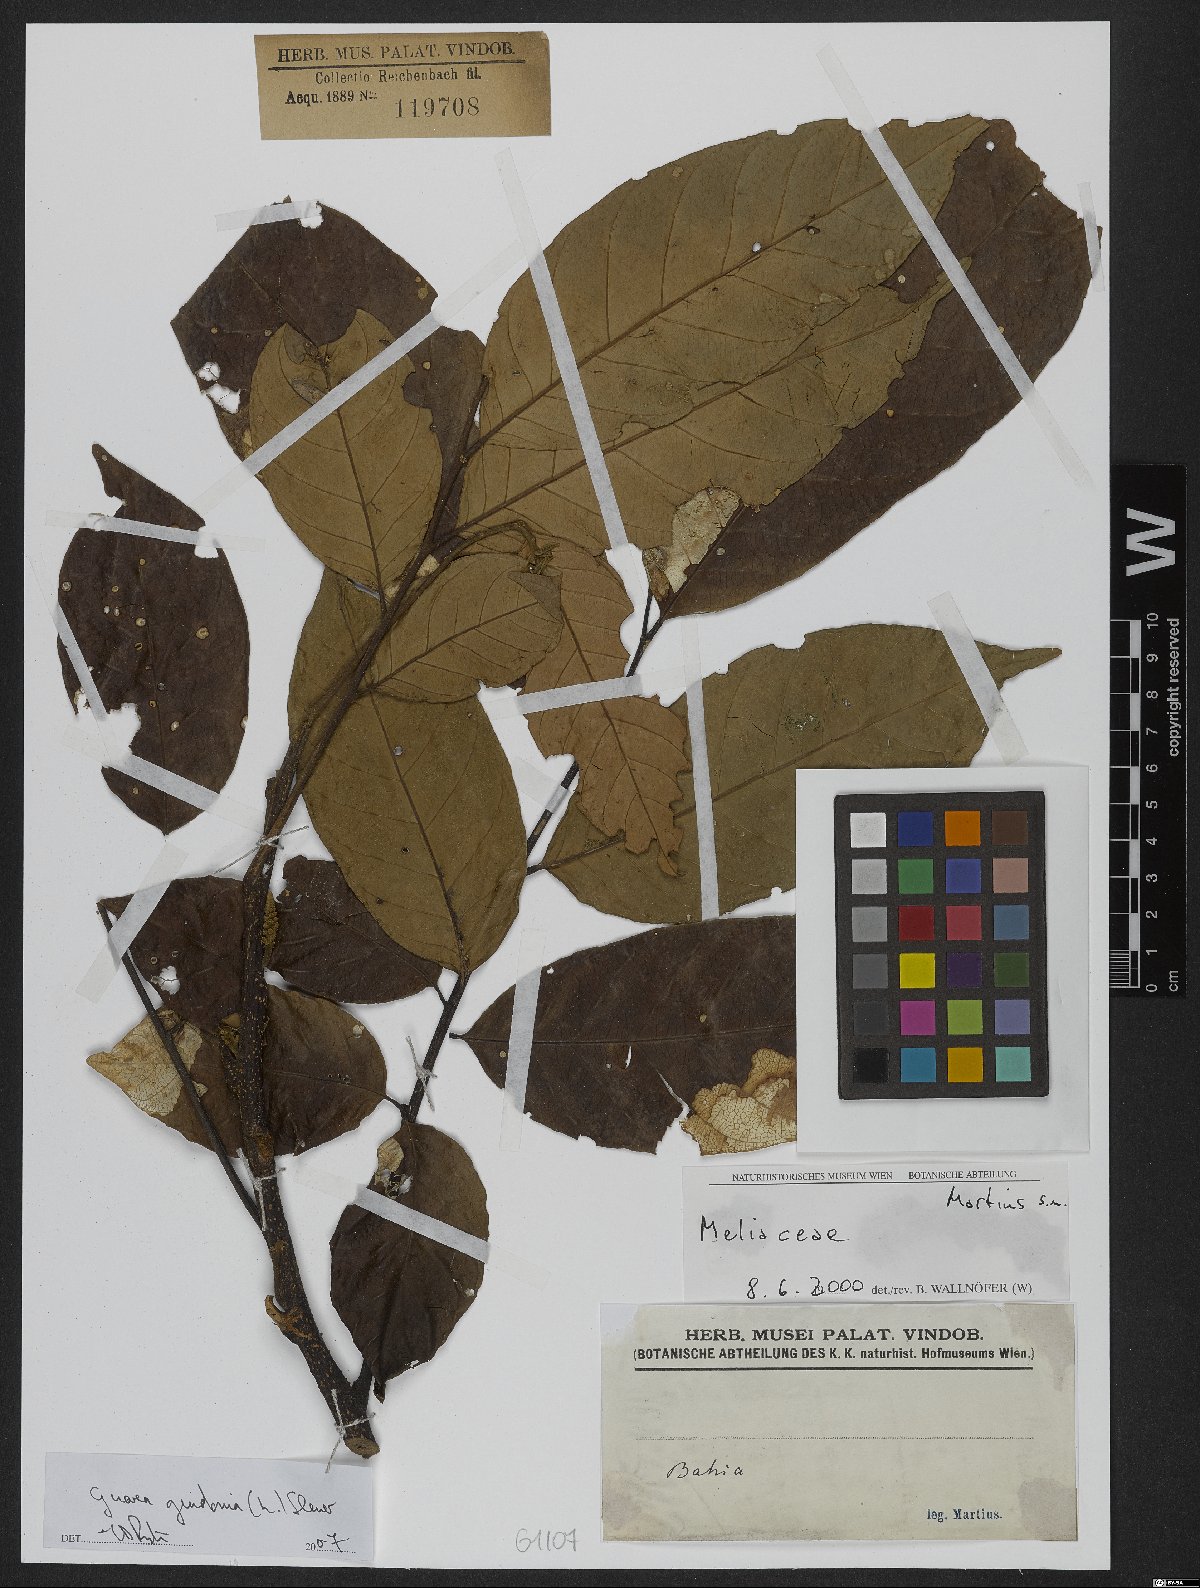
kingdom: Plantae
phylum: Tracheophyta
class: Magnoliopsida
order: Sapindales
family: Meliaceae
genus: Guarea
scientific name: Guarea guidonia
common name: American muskwood
